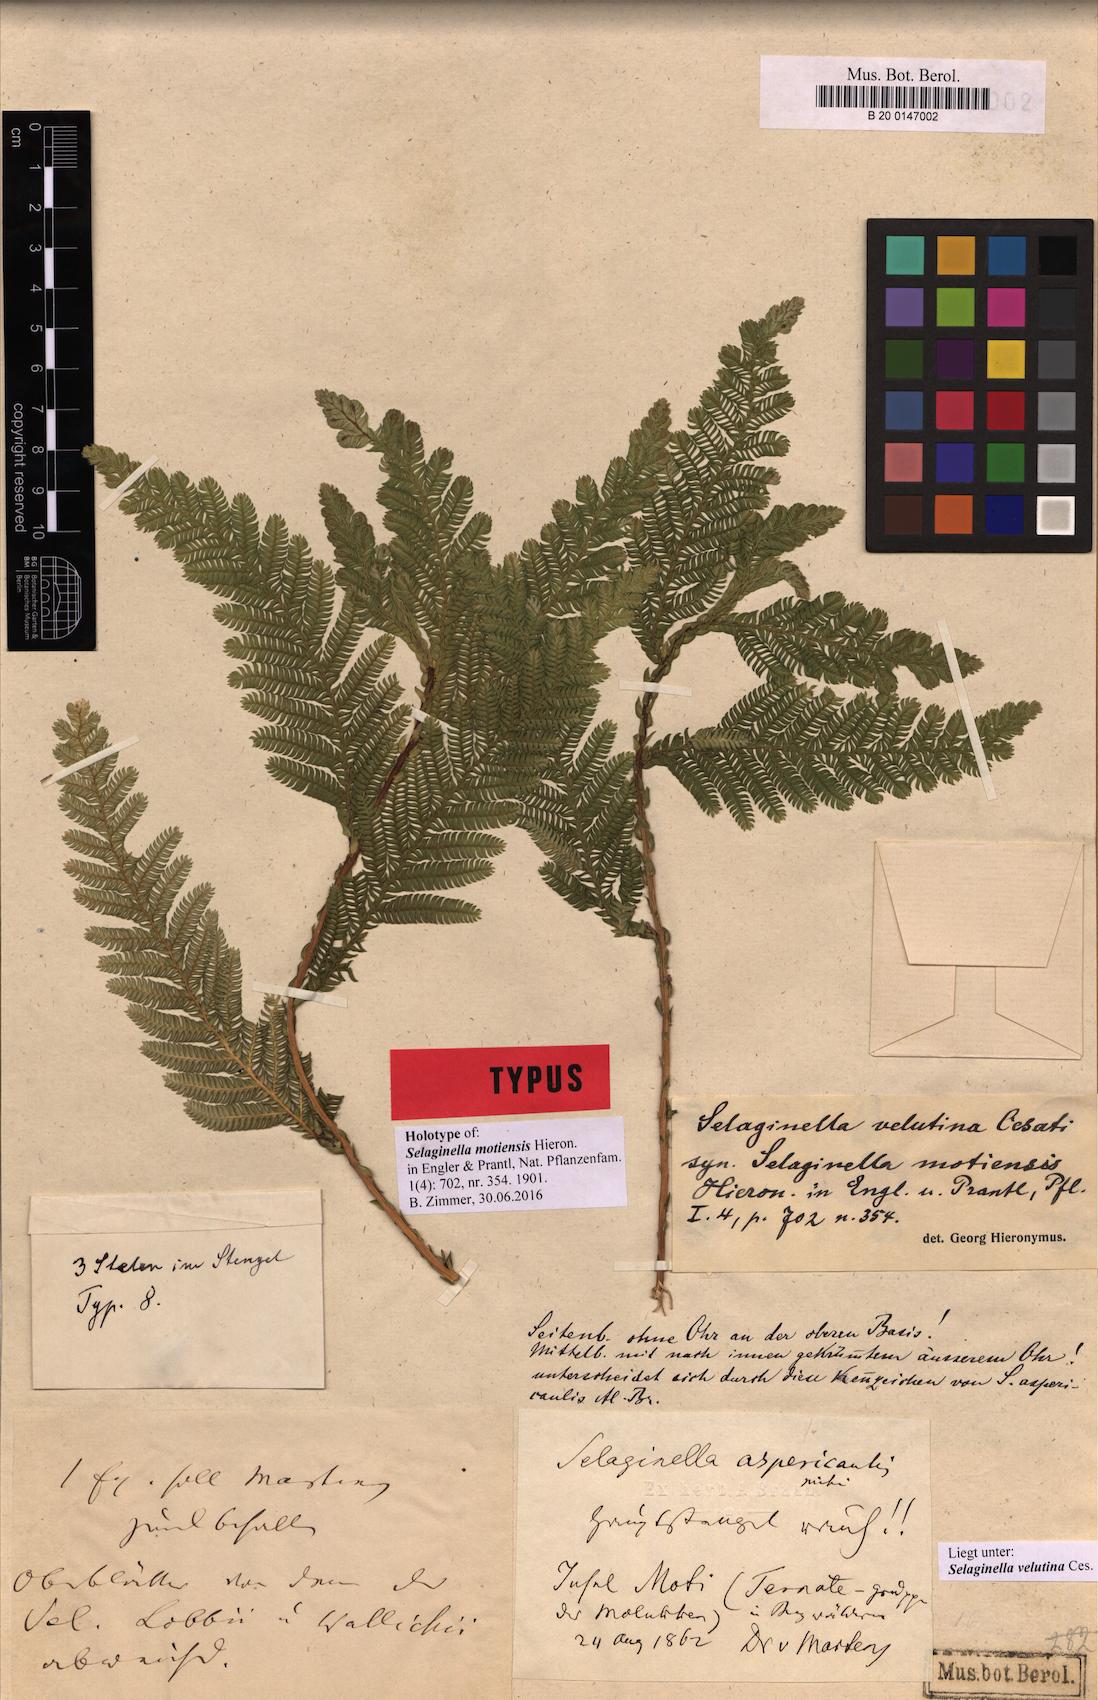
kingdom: Plantae
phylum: Tracheophyta
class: Lycopodiopsida
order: Selaginellales
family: Selaginellaceae
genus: Selaginella
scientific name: Selaginella velutina
